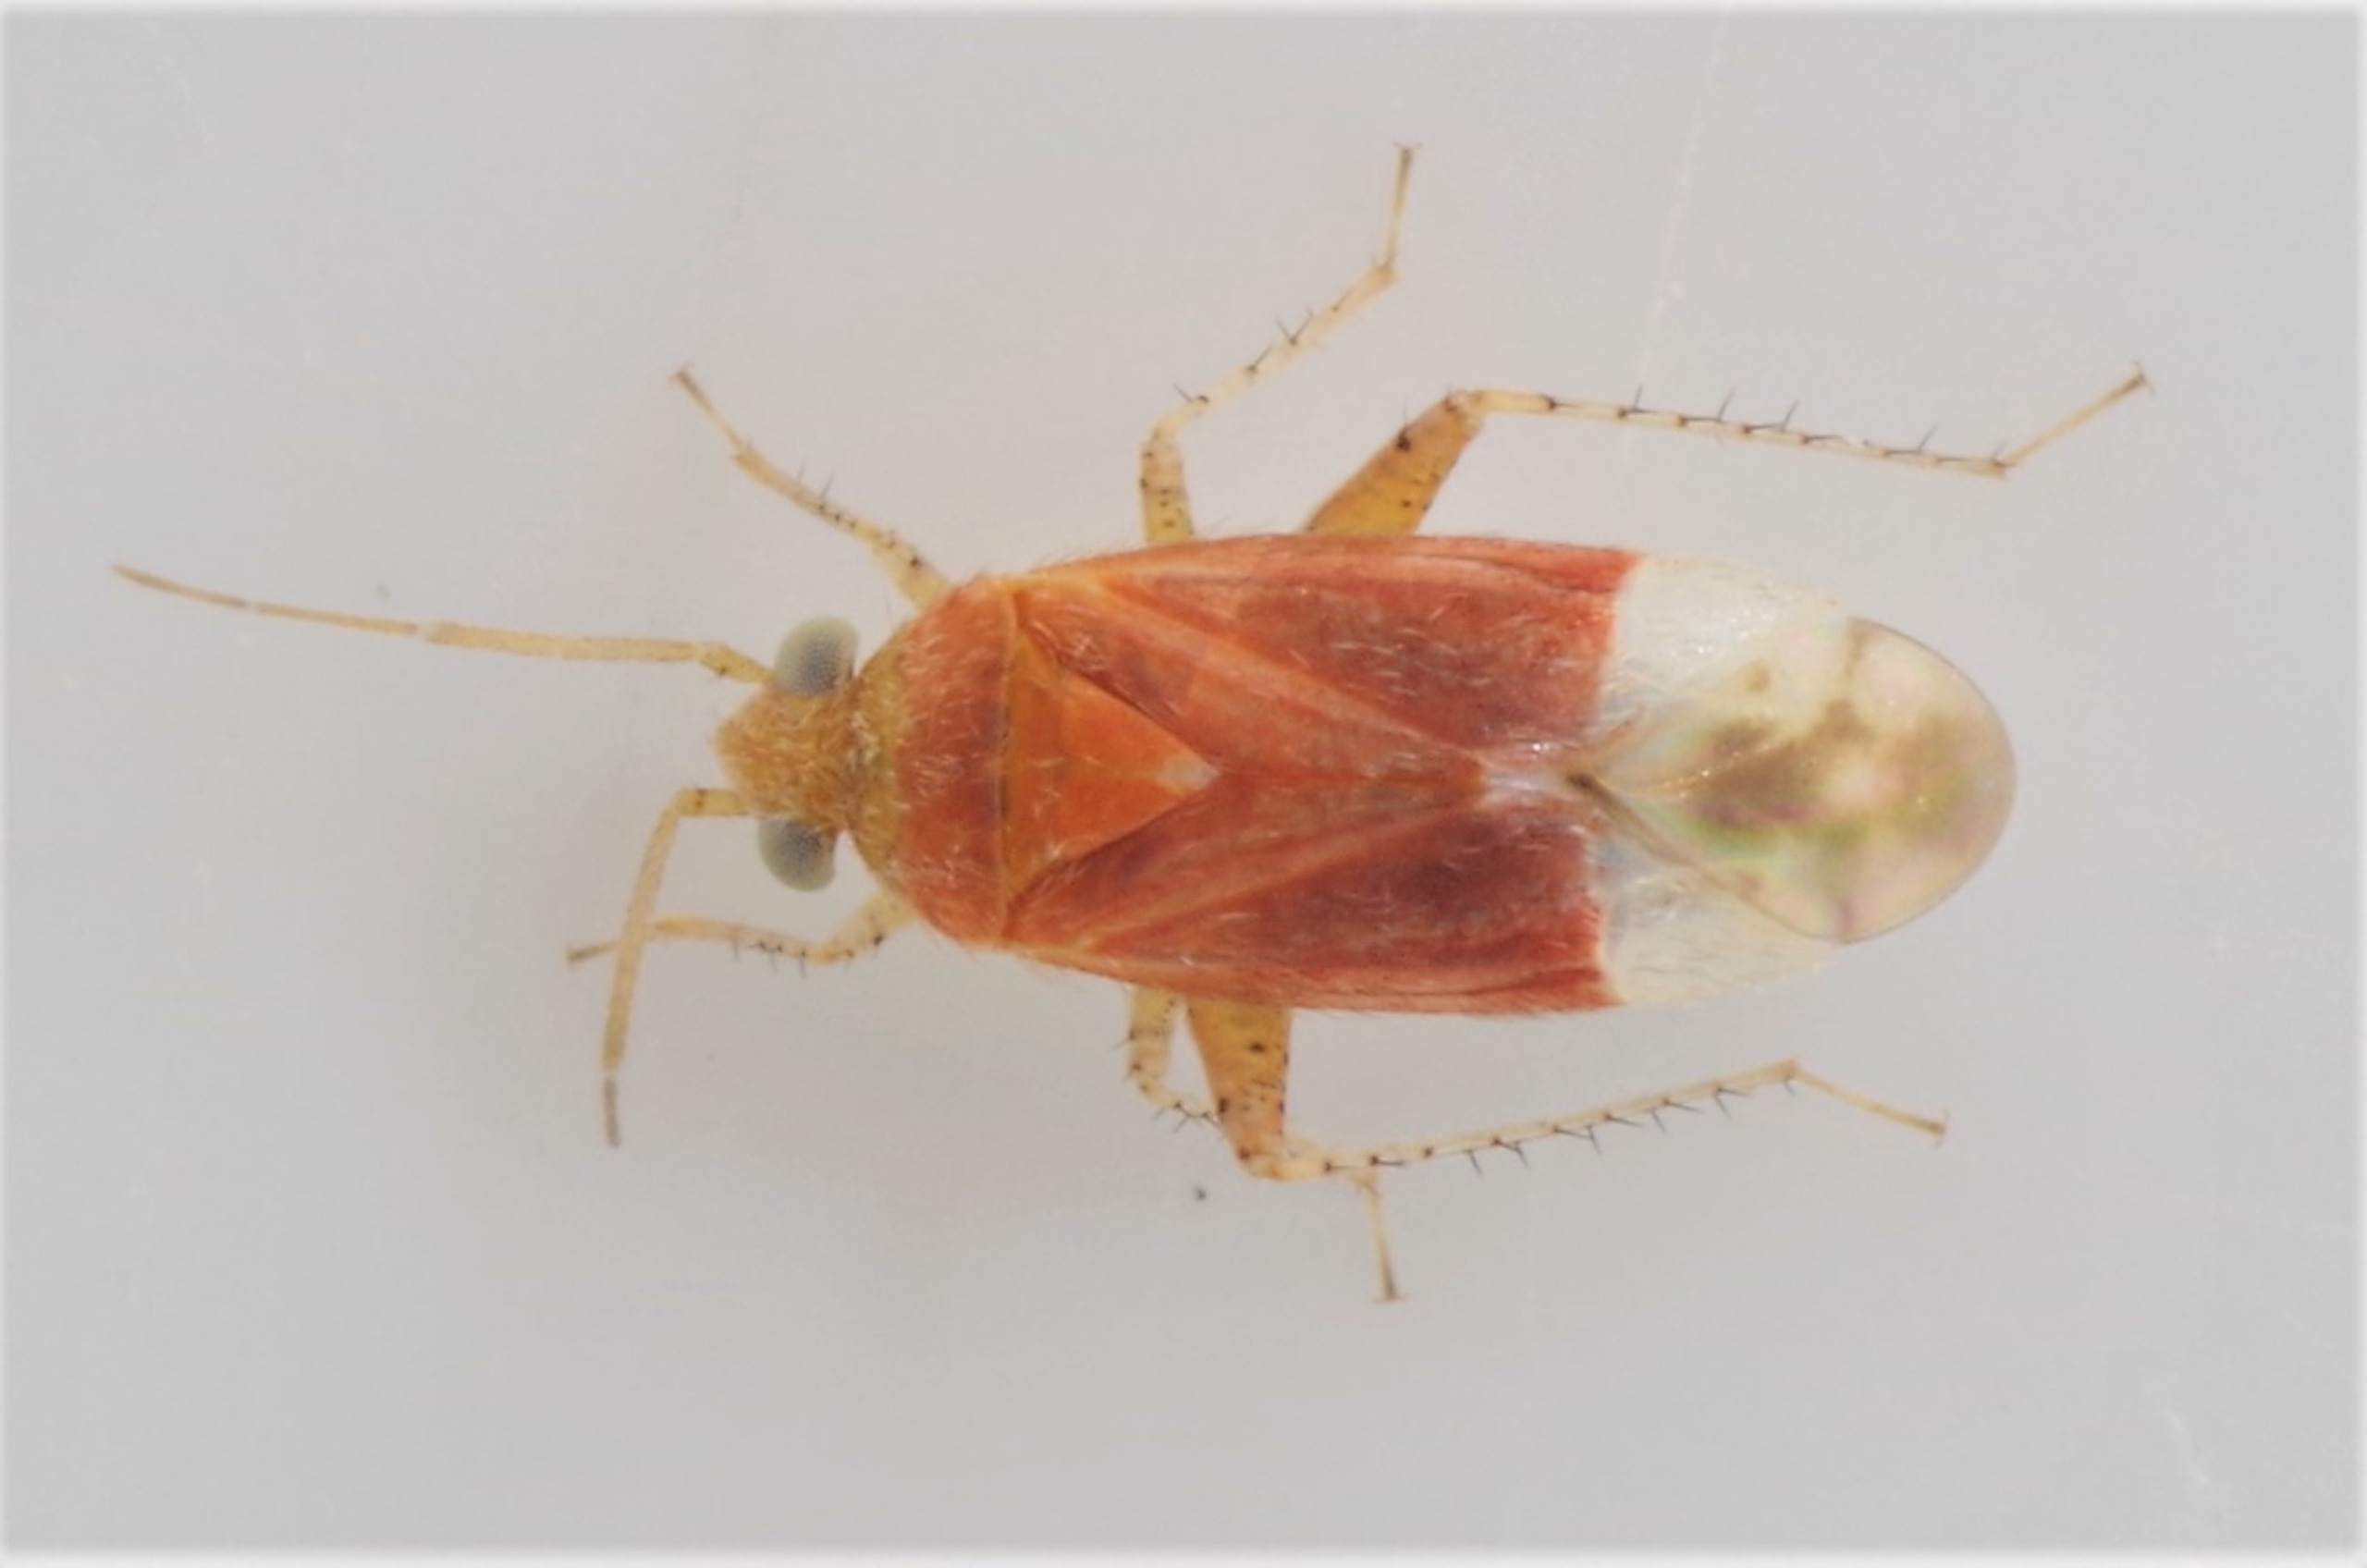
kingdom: Animalia
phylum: Arthropoda
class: Insecta
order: Hemiptera
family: Miridae
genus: Psallus
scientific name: Psallus haematodes
